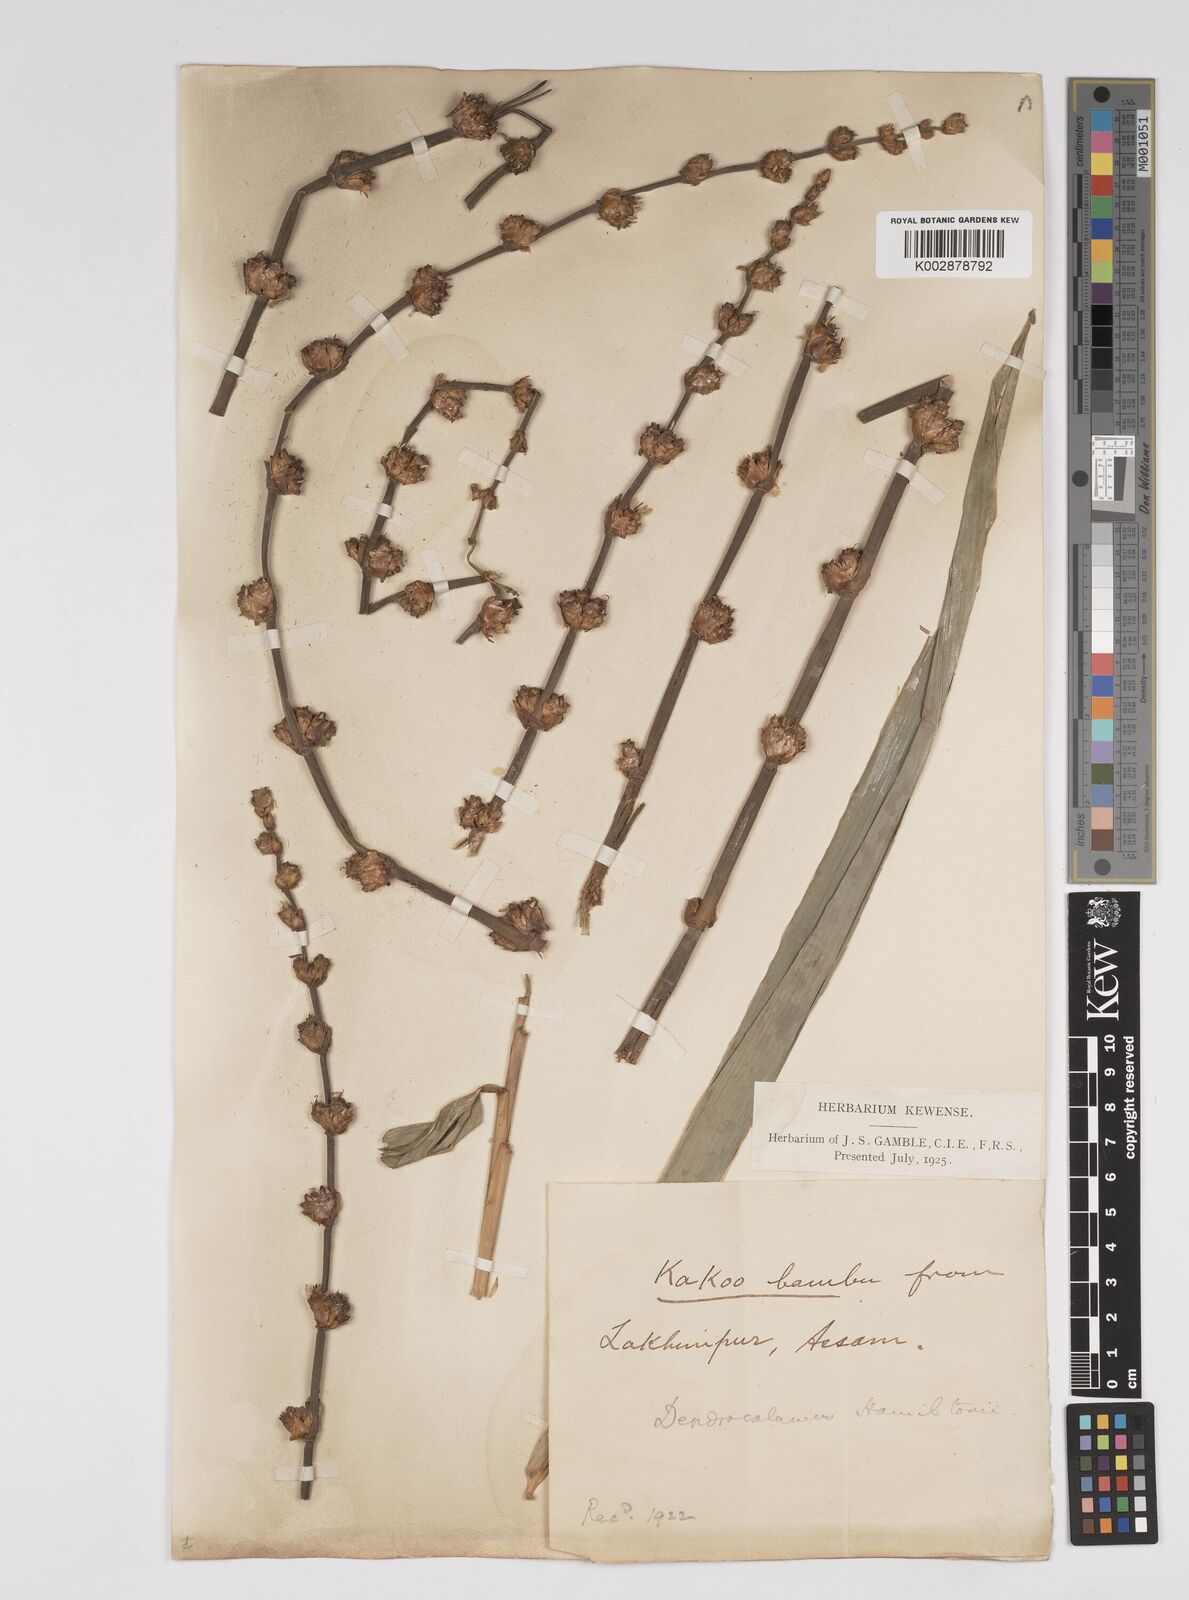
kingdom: Plantae
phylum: Tracheophyta
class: Liliopsida
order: Poales
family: Poaceae
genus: Dendrocalamus
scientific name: Dendrocalamus hamiltonii
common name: Tama bamboo
